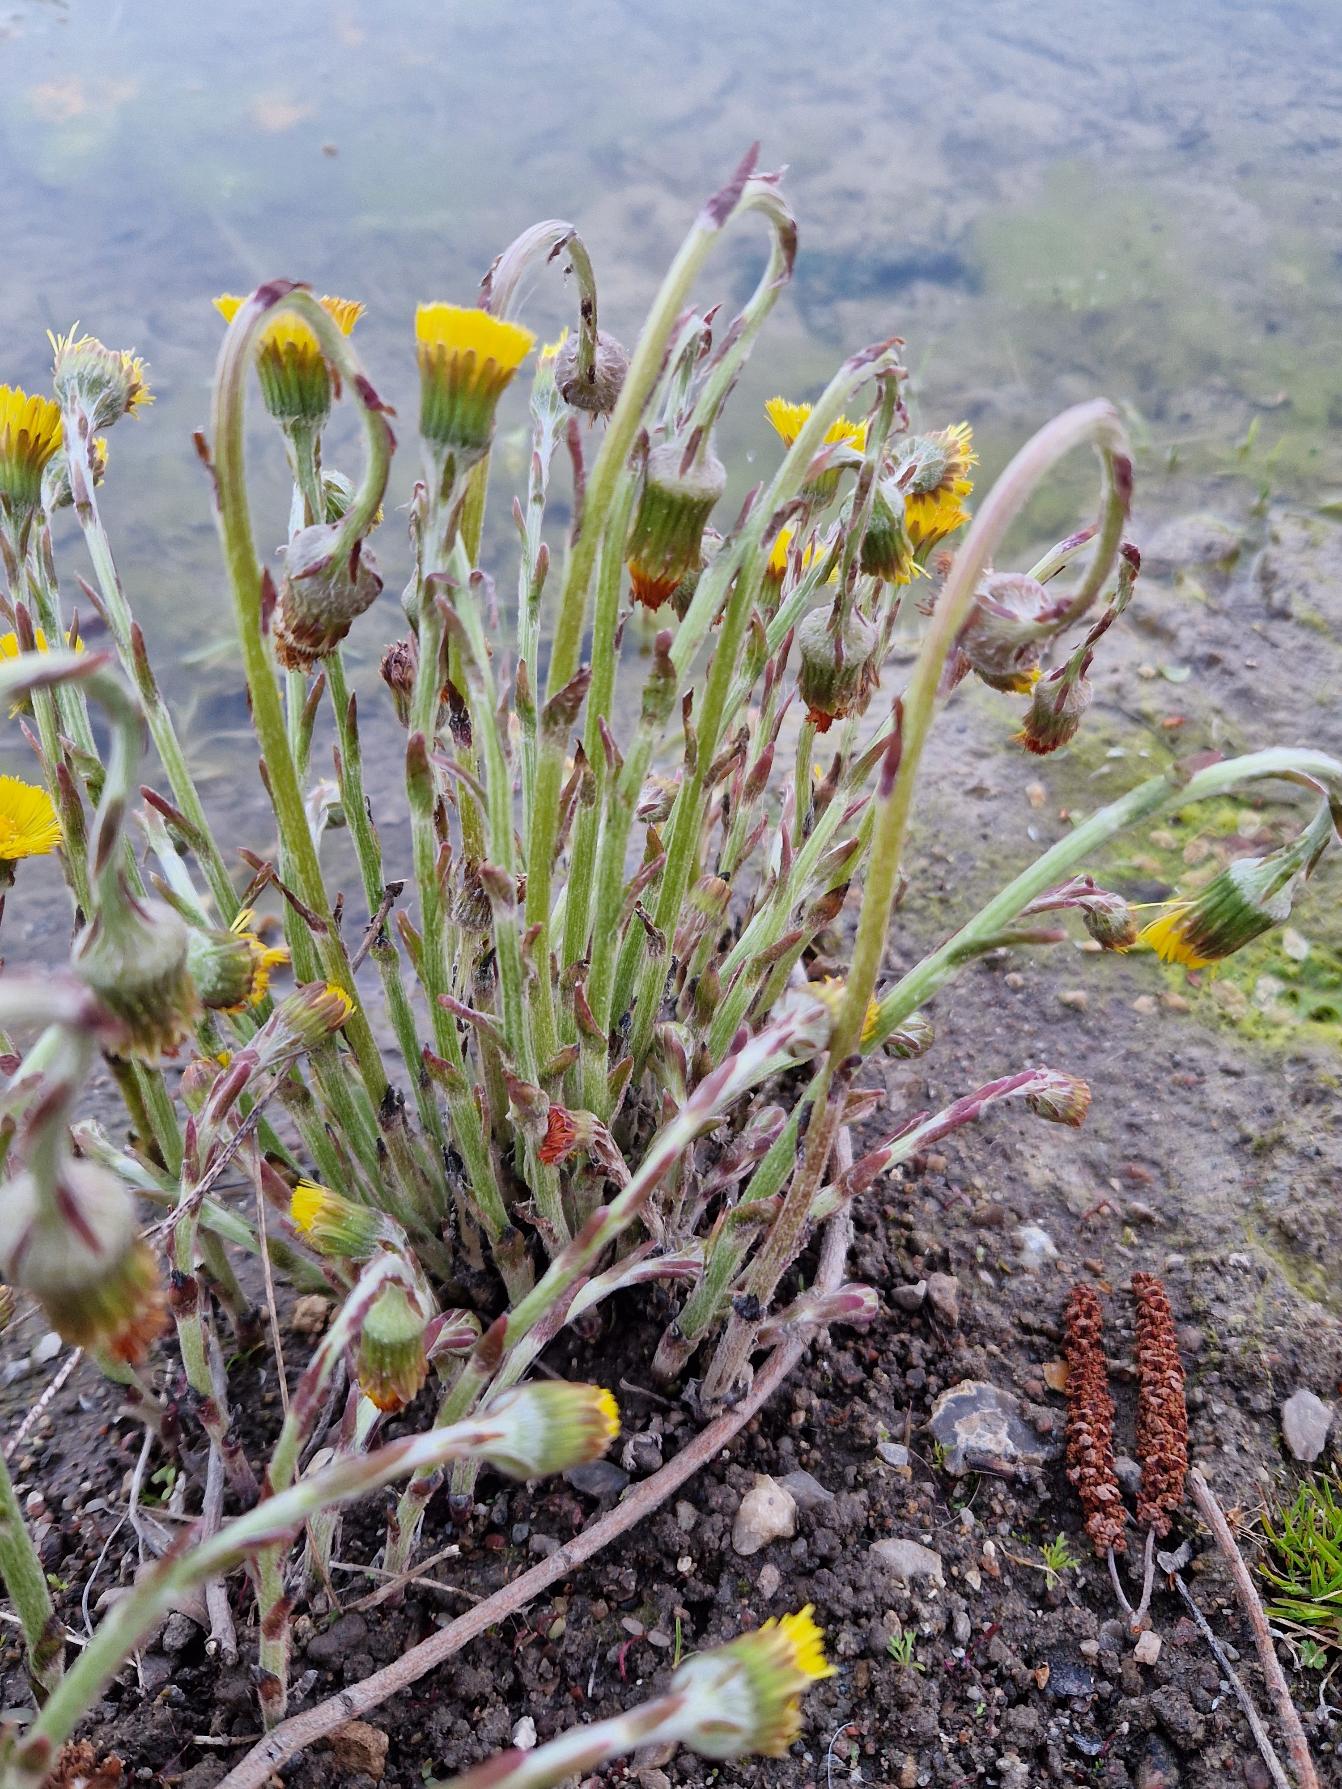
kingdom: Plantae
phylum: Tracheophyta
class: Magnoliopsida
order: Asterales
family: Asteraceae
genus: Tussilago
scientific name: Tussilago farfara
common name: Følfod
